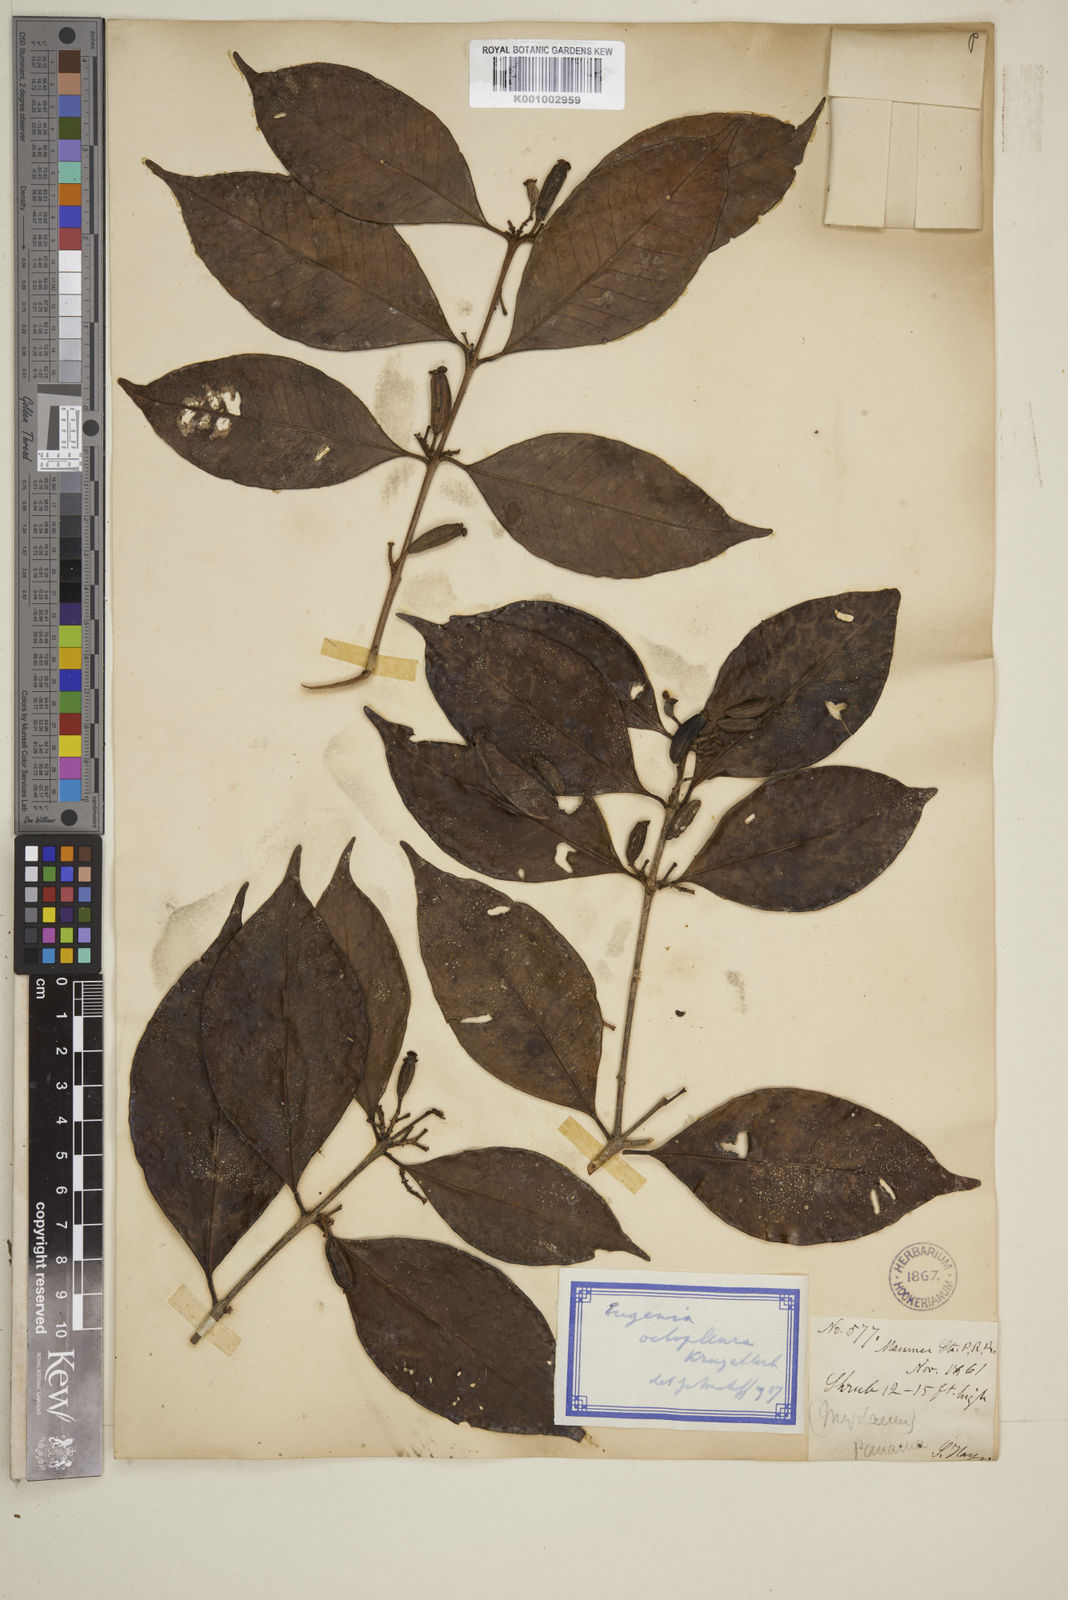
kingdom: Plantae
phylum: Tracheophyta
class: Magnoliopsida
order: Myrtales
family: Myrtaceae
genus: Eugenia
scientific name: Eugenia octopleura
